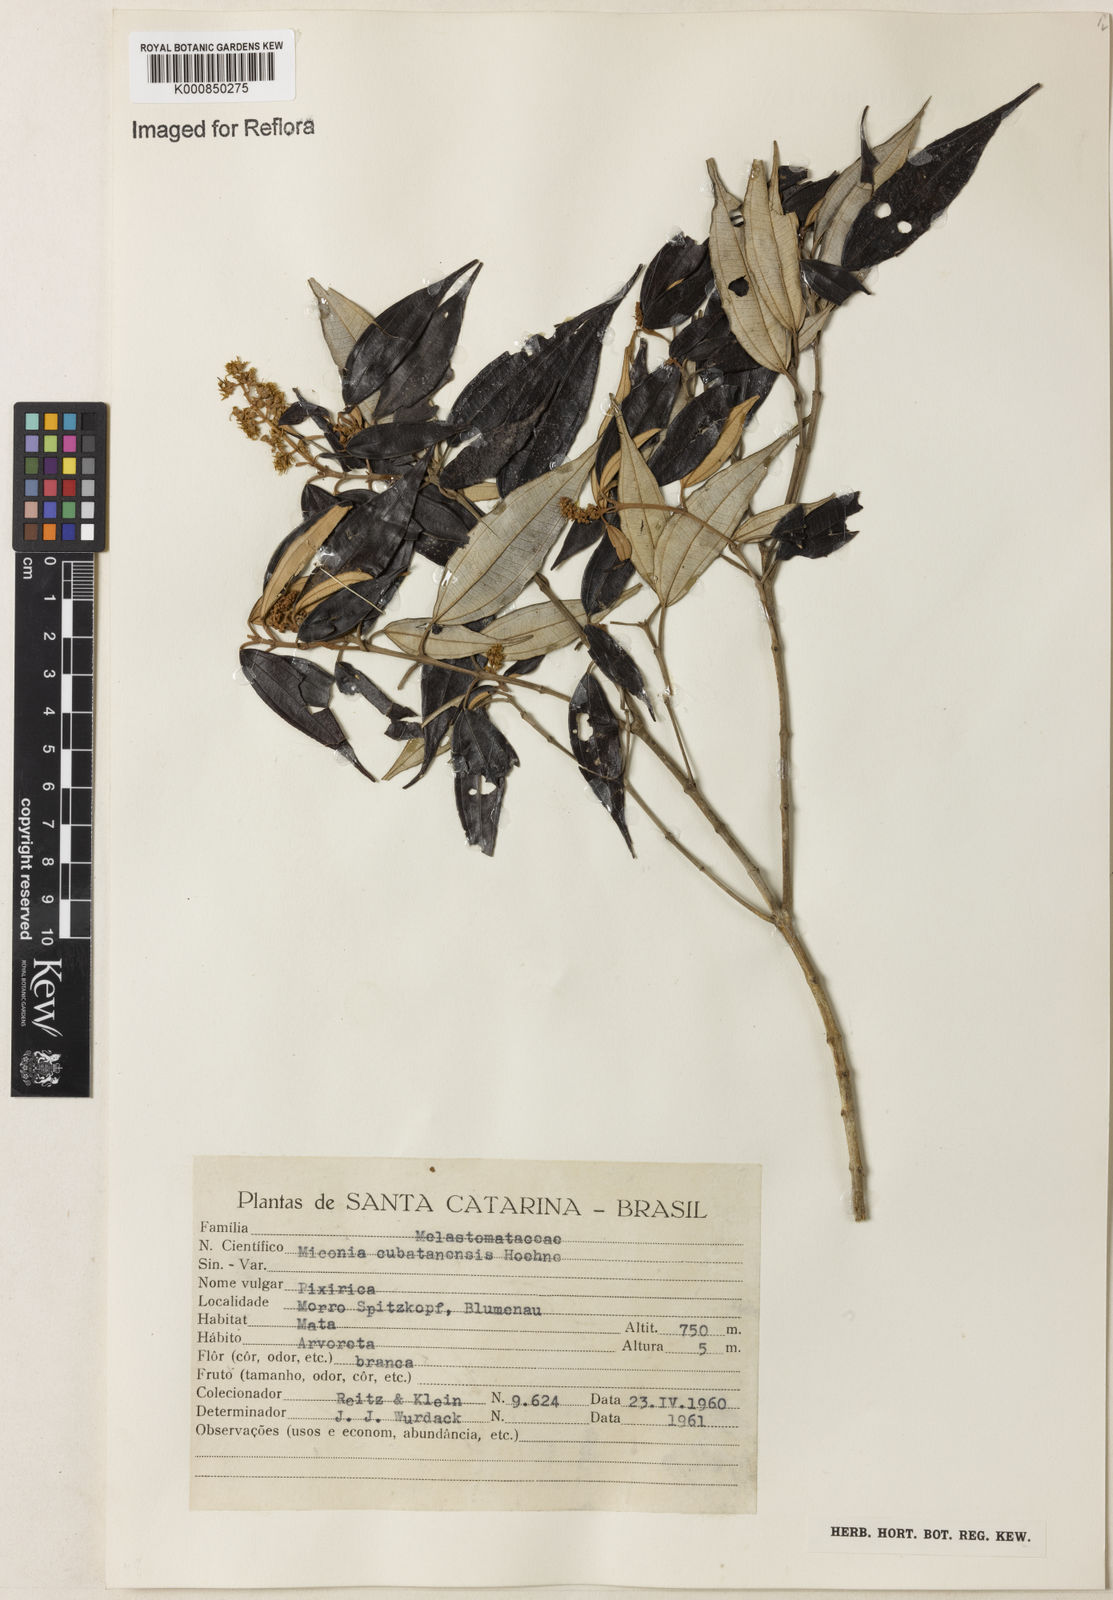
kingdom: Plantae
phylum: Tracheophyta
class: Magnoliopsida
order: Myrtales
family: Melastomataceae
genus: Miconia
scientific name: Miconia cubatanensis
